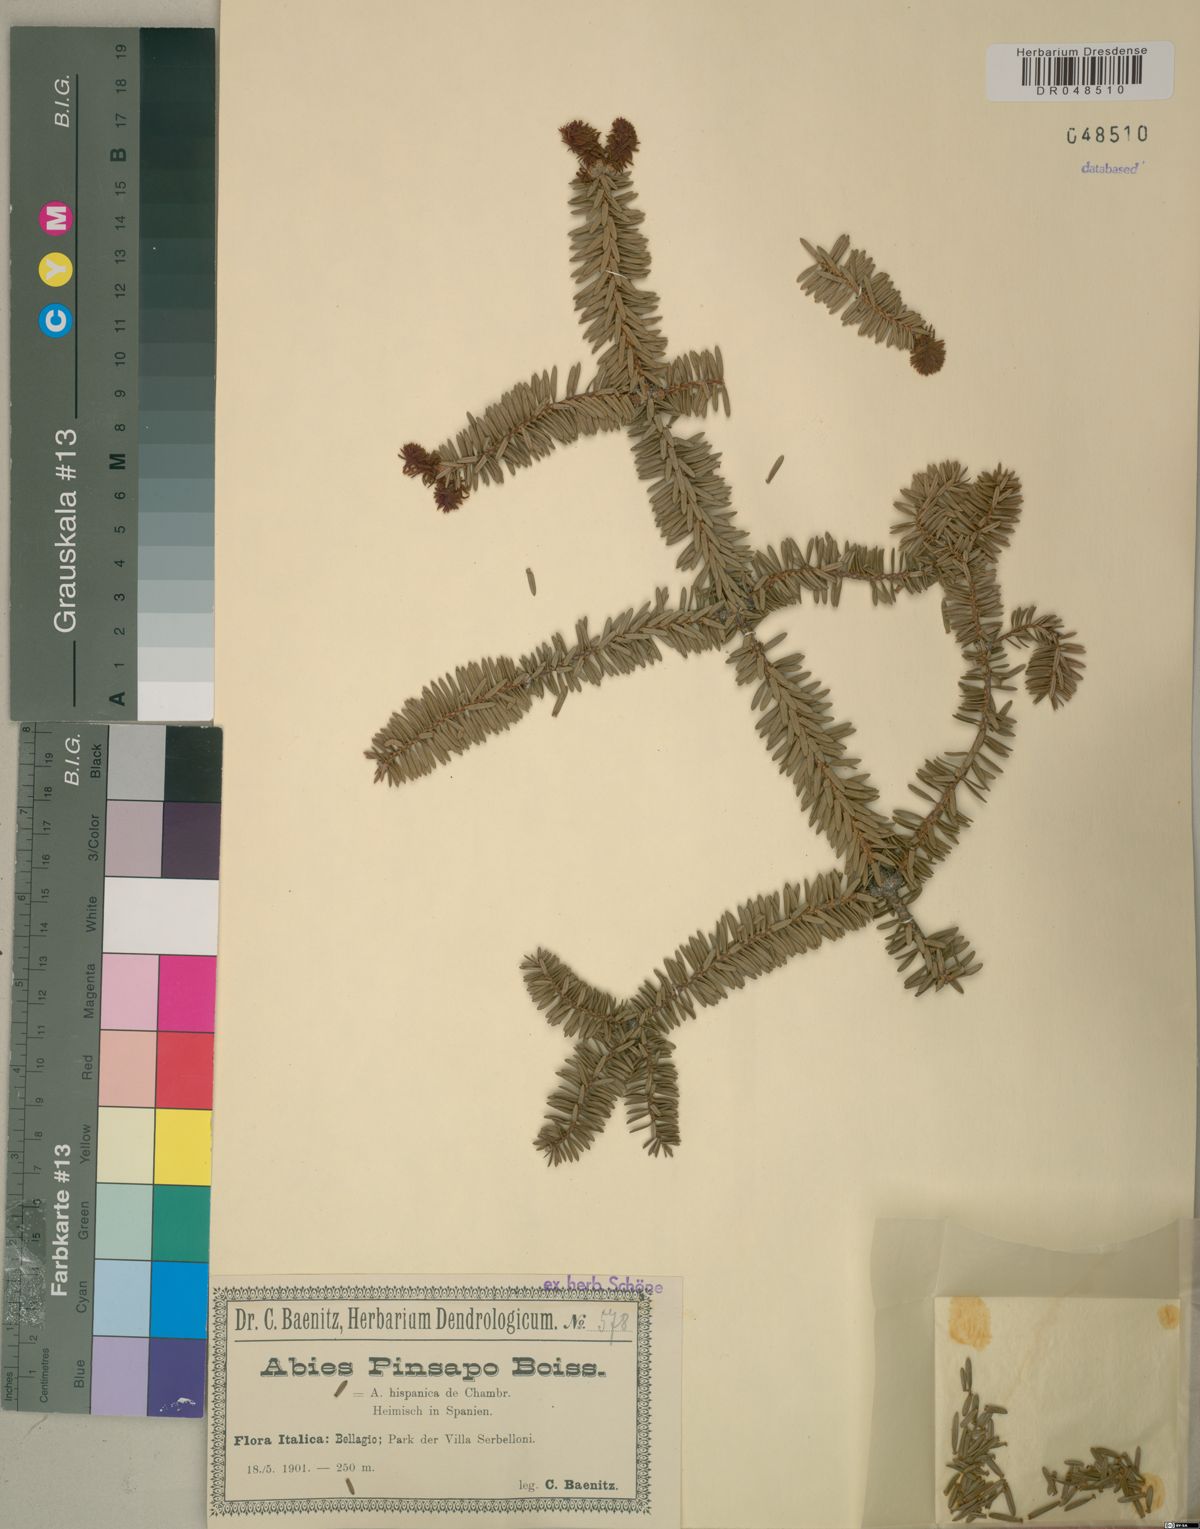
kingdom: Plantae
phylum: Tracheophyta
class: Pinopsida
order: Pinales
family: Pinaceae
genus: Abies
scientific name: Abies pinsapo
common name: Spanish fir
